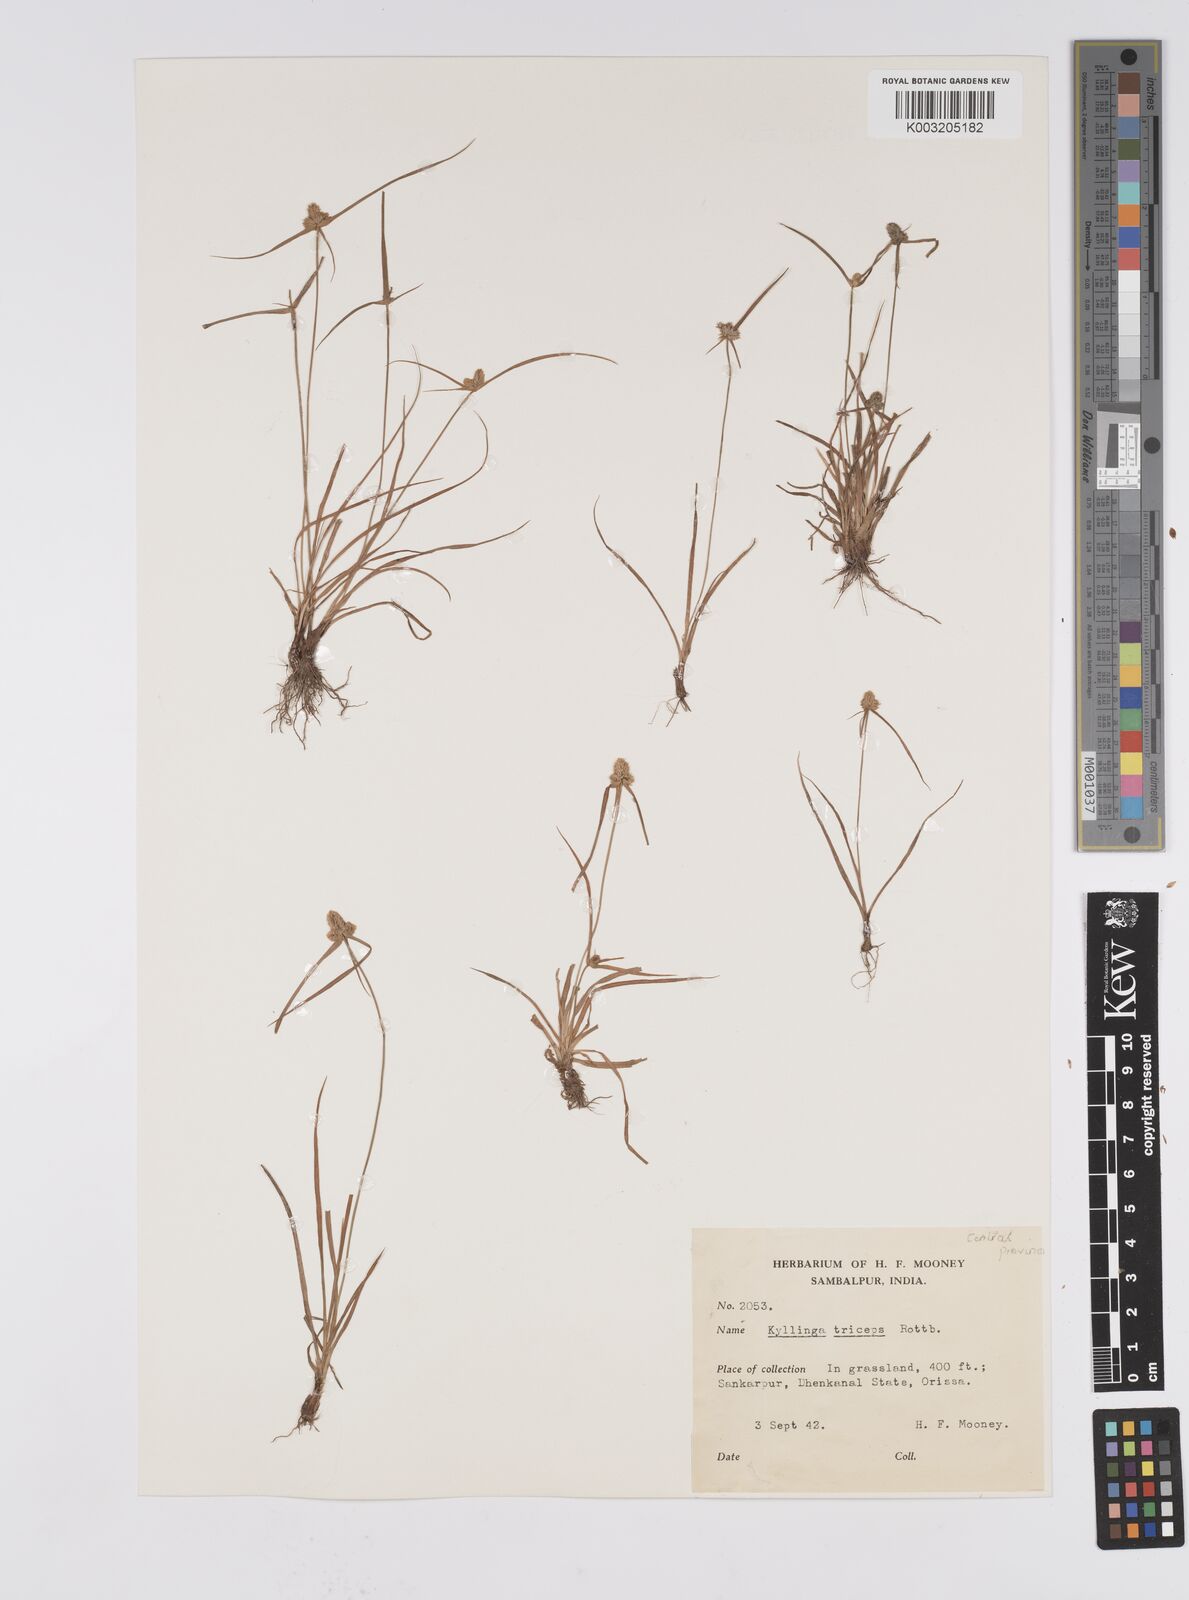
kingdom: Plantae
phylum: Tracheophyta
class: Liliopsida
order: Poales
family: Cyperaceae
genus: Cyperus
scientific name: Cyperus
